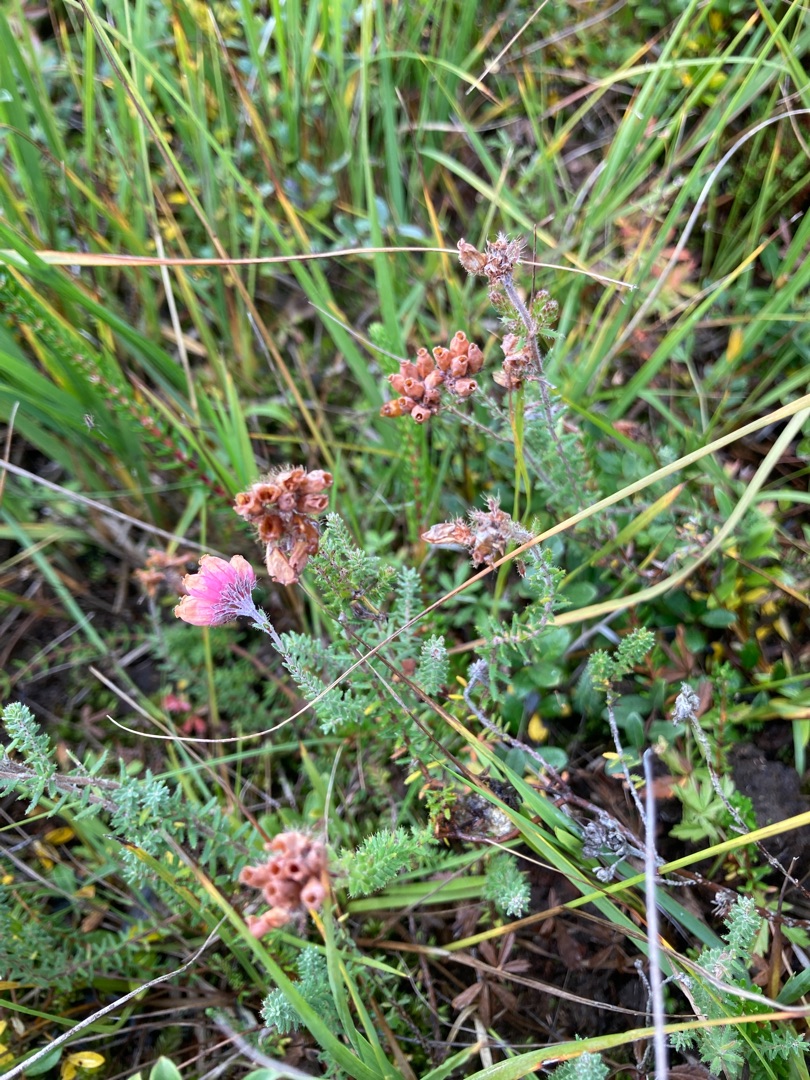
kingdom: Plantae
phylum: Tracheophyta
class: Magnoliopsida
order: Ericales
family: Ericaceae
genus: Erica
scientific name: Erica tetralix
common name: Klokkelyng
